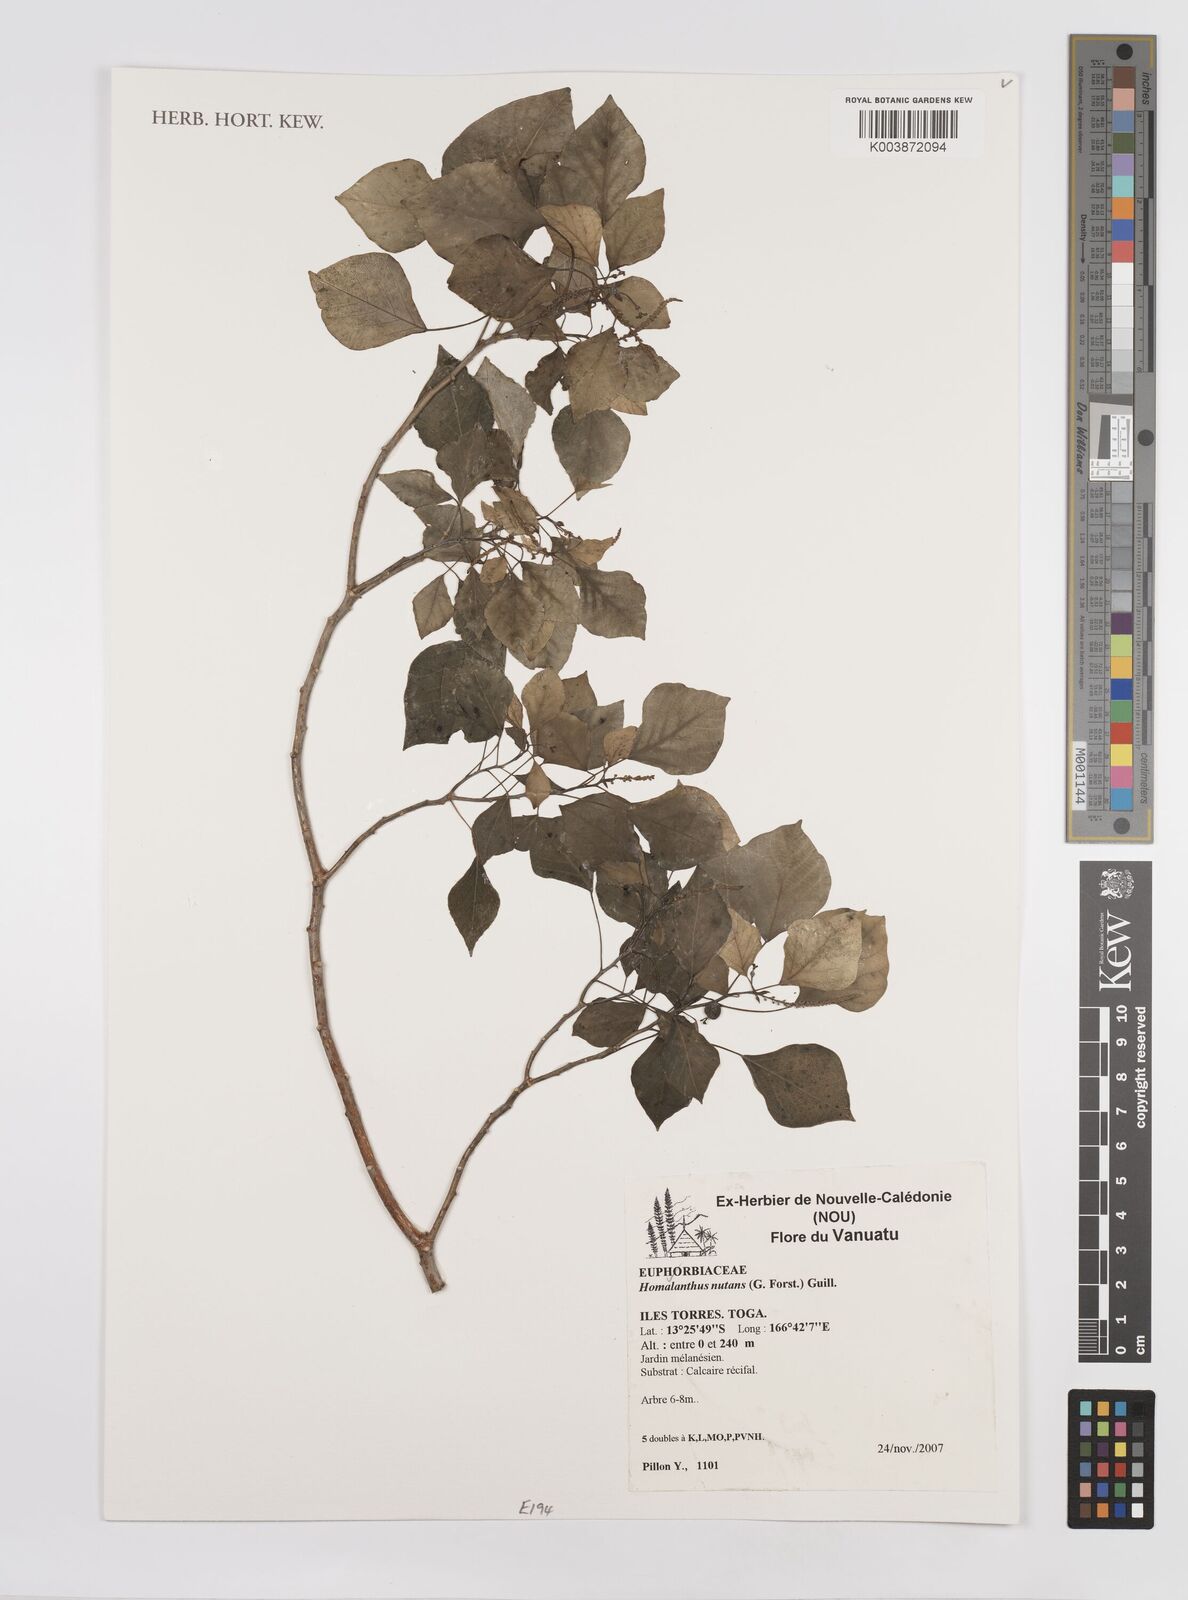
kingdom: Plantae
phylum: Tracheophyta
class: Magnoliopsida
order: Malpighiales
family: Euphorbiaceae
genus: Homalanthus
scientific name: Homalanthus nutans
